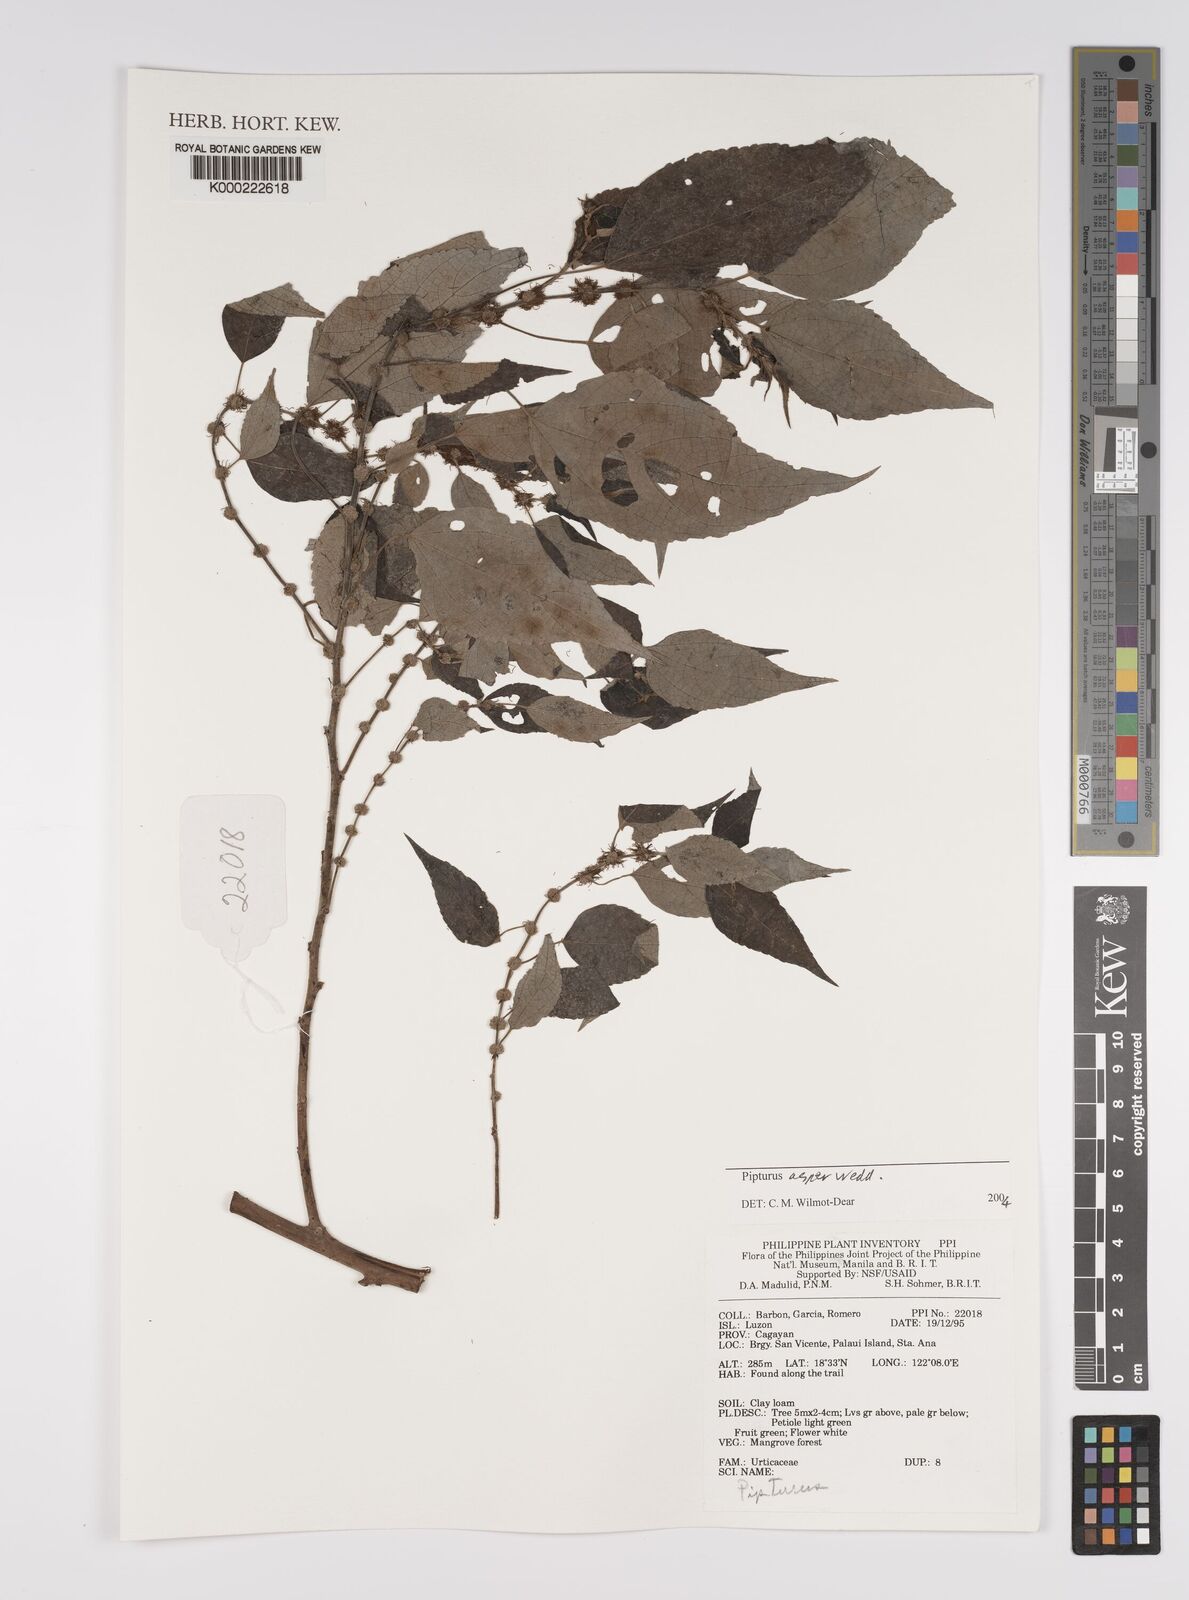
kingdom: Plantae
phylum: Tracheophyta
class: Magnoliopsida
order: Rosales
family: Urticaceae
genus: Pipturus
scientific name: Pipturus arborescens
